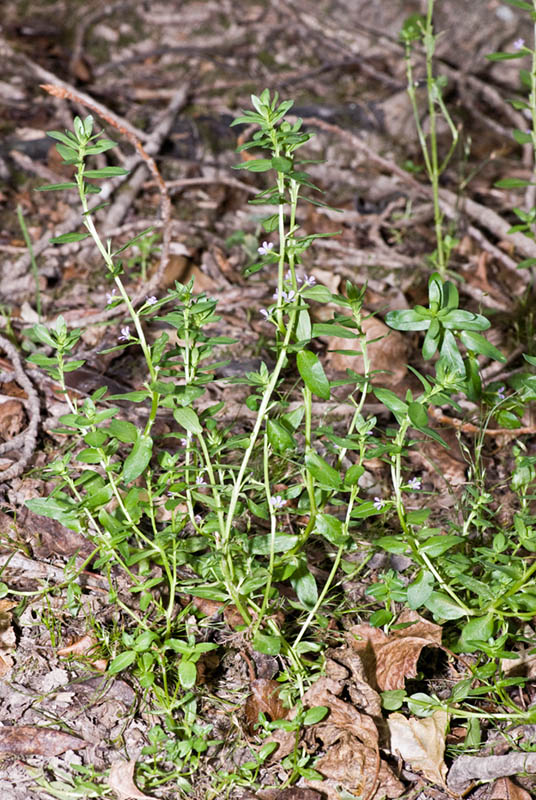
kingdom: Plantae
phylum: Tracheophyta
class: Magnoliopsida
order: Myrtales
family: Lythraceae
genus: Lythrum
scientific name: Lythrum junceum
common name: False grass-poly
